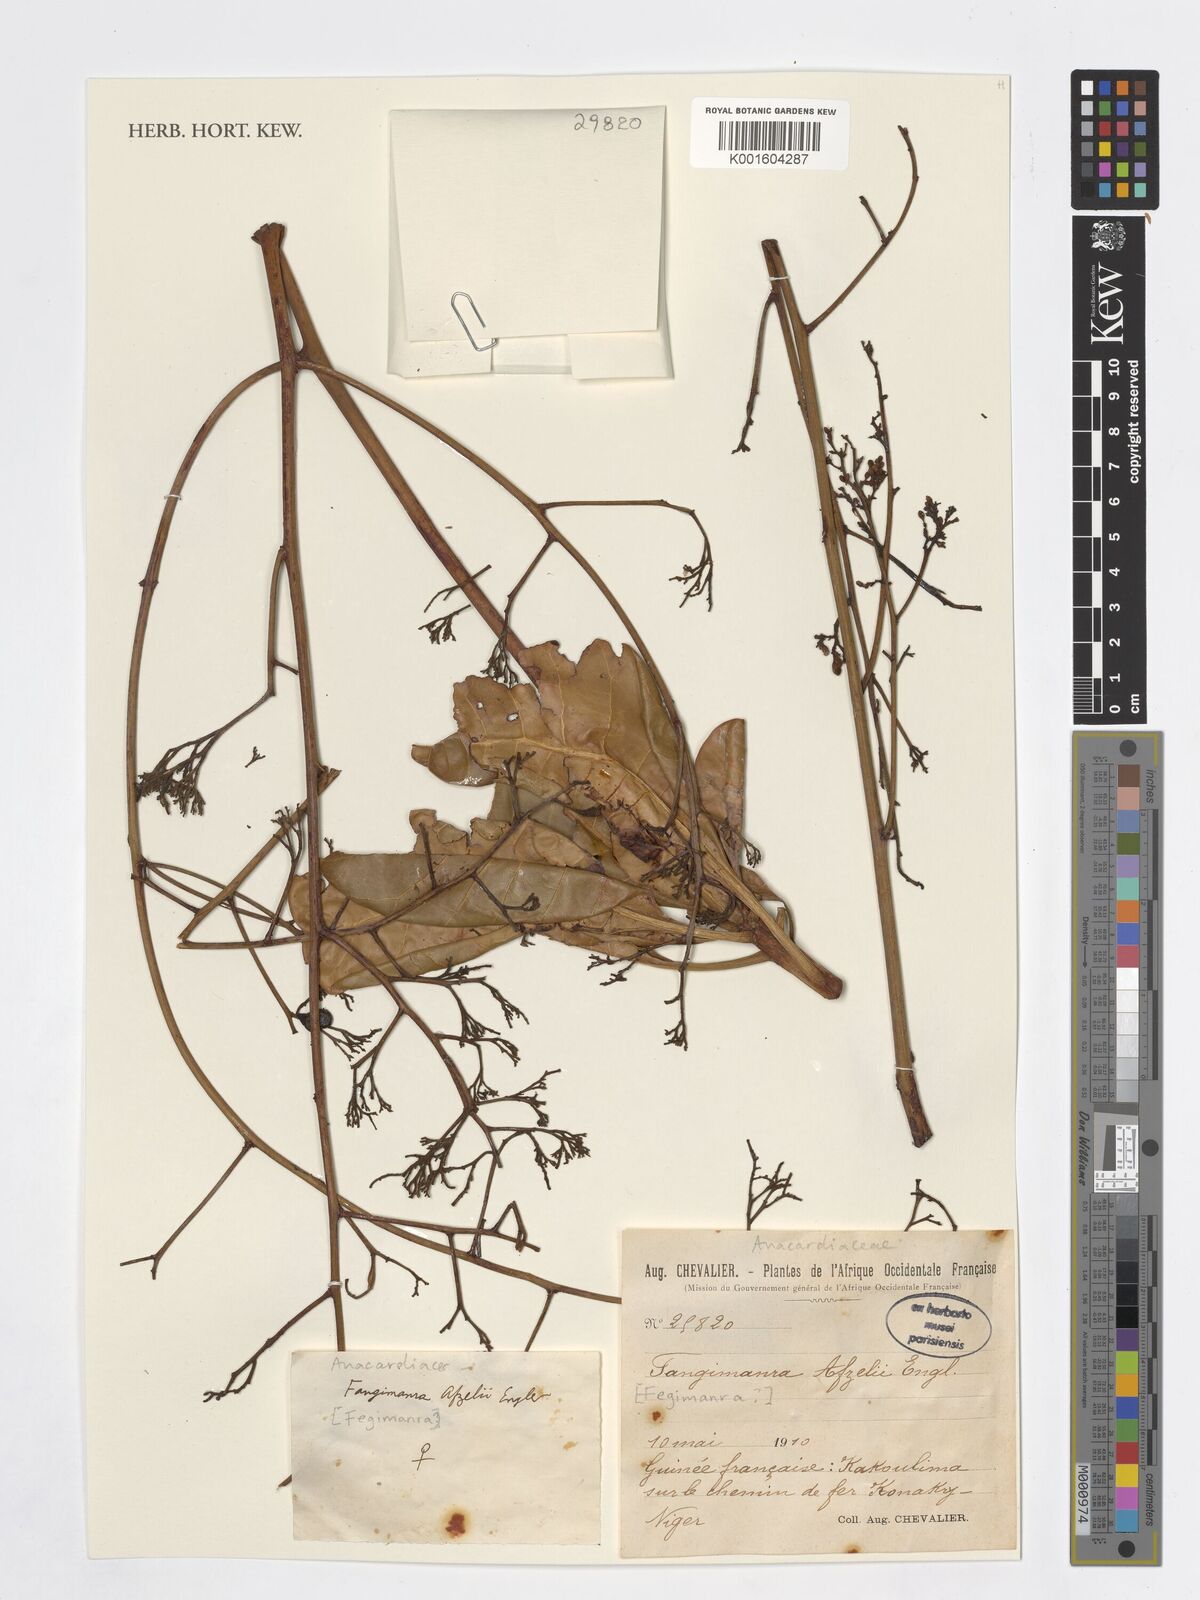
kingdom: Plantae
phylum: Tracheophyta
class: Magnoliopsida
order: Sapindales
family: Anacardiaceae
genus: Fegimanra
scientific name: Fegimanra afzelii
